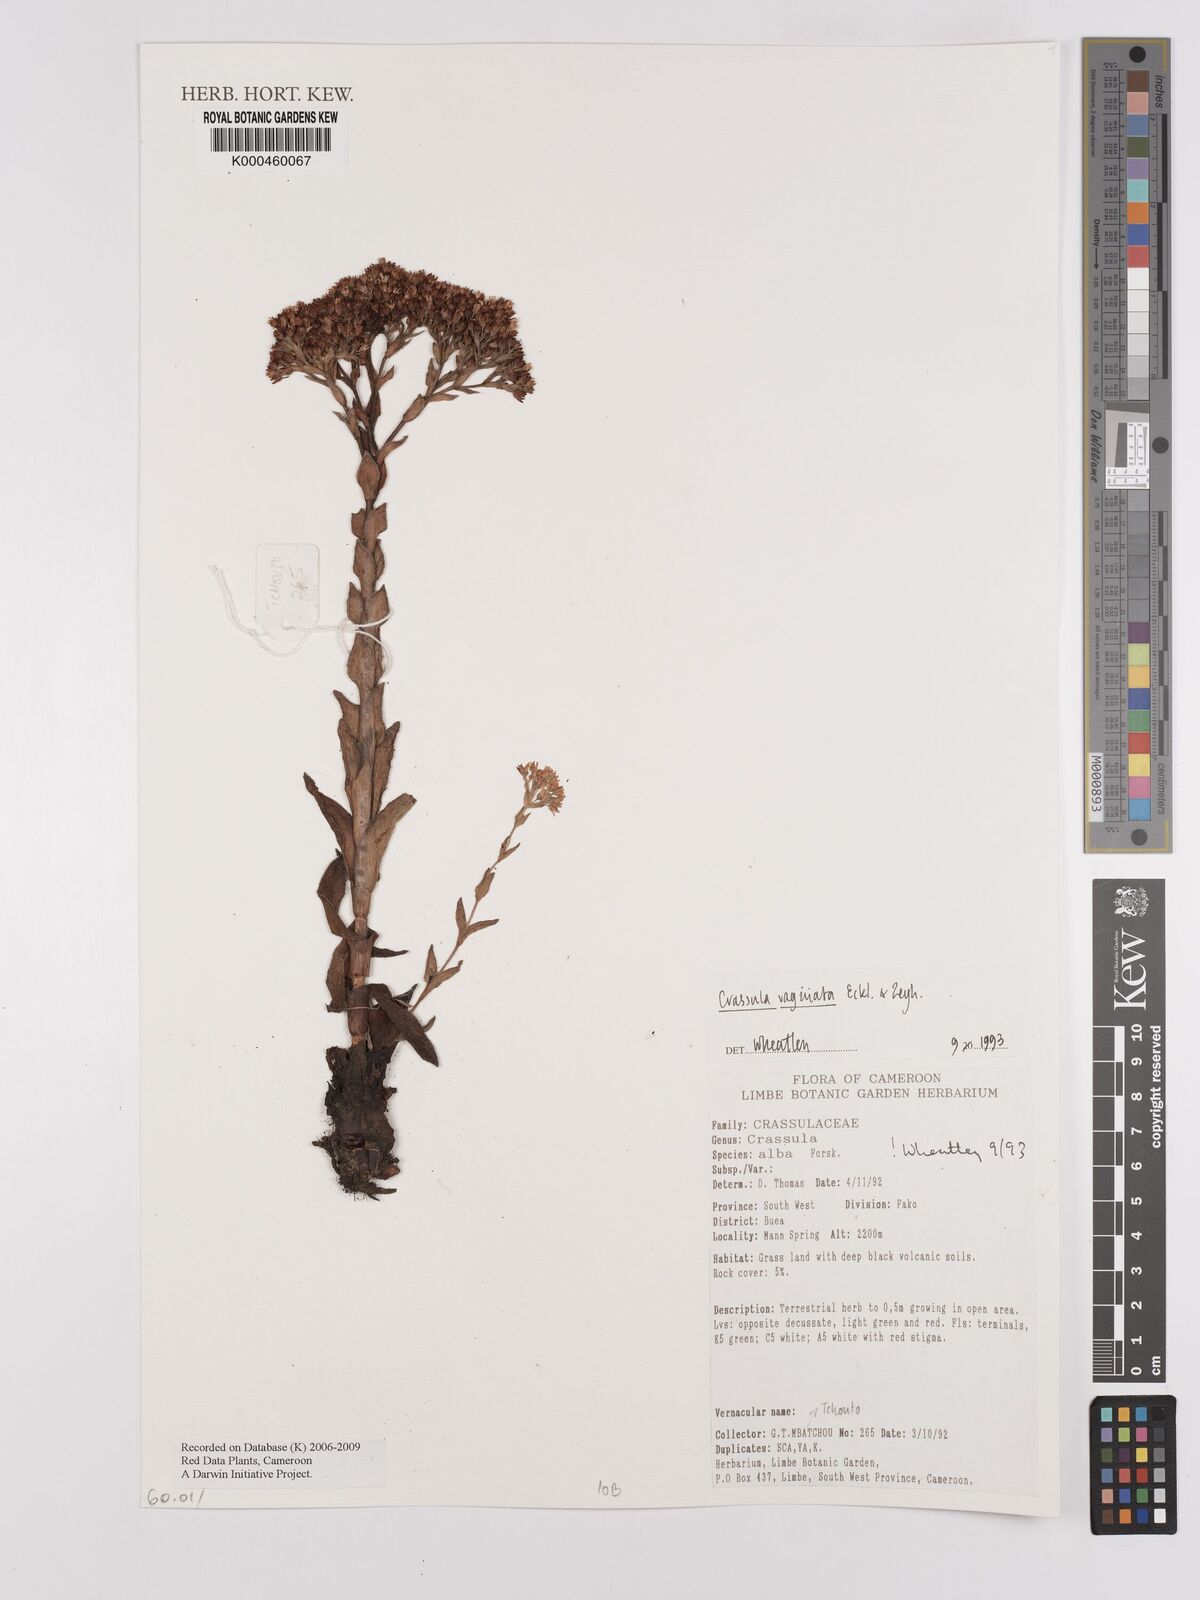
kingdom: Plantae
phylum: Tracheophyta
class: Magnoliopsida
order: Saxifragales
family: Crassulaceae
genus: Crassula
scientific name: Crassula vaginata
